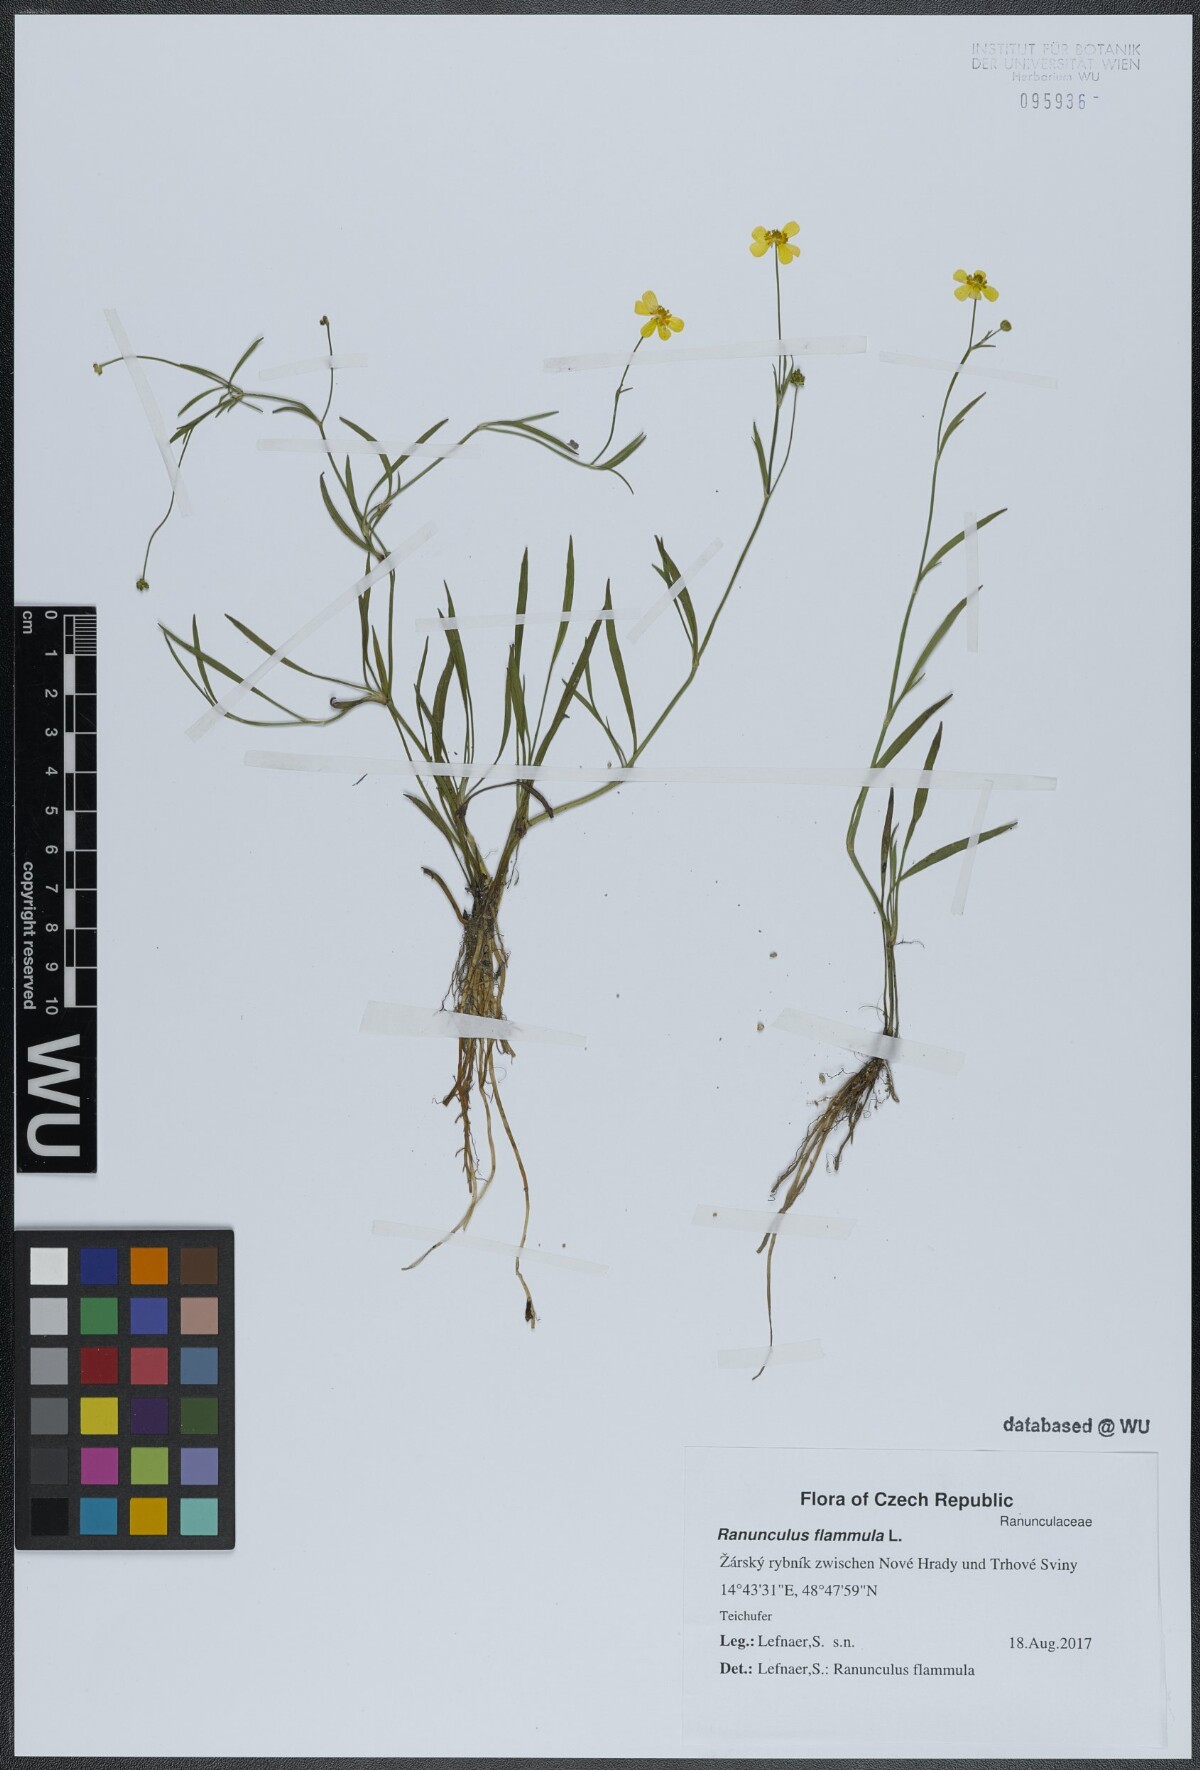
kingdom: Plantae
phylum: Tracheophyta
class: Magnoliopsida
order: Ranunculales
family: Ranunculaceae
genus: Ranunculus
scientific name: Ranunculus flammula
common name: Lesser spearwort
